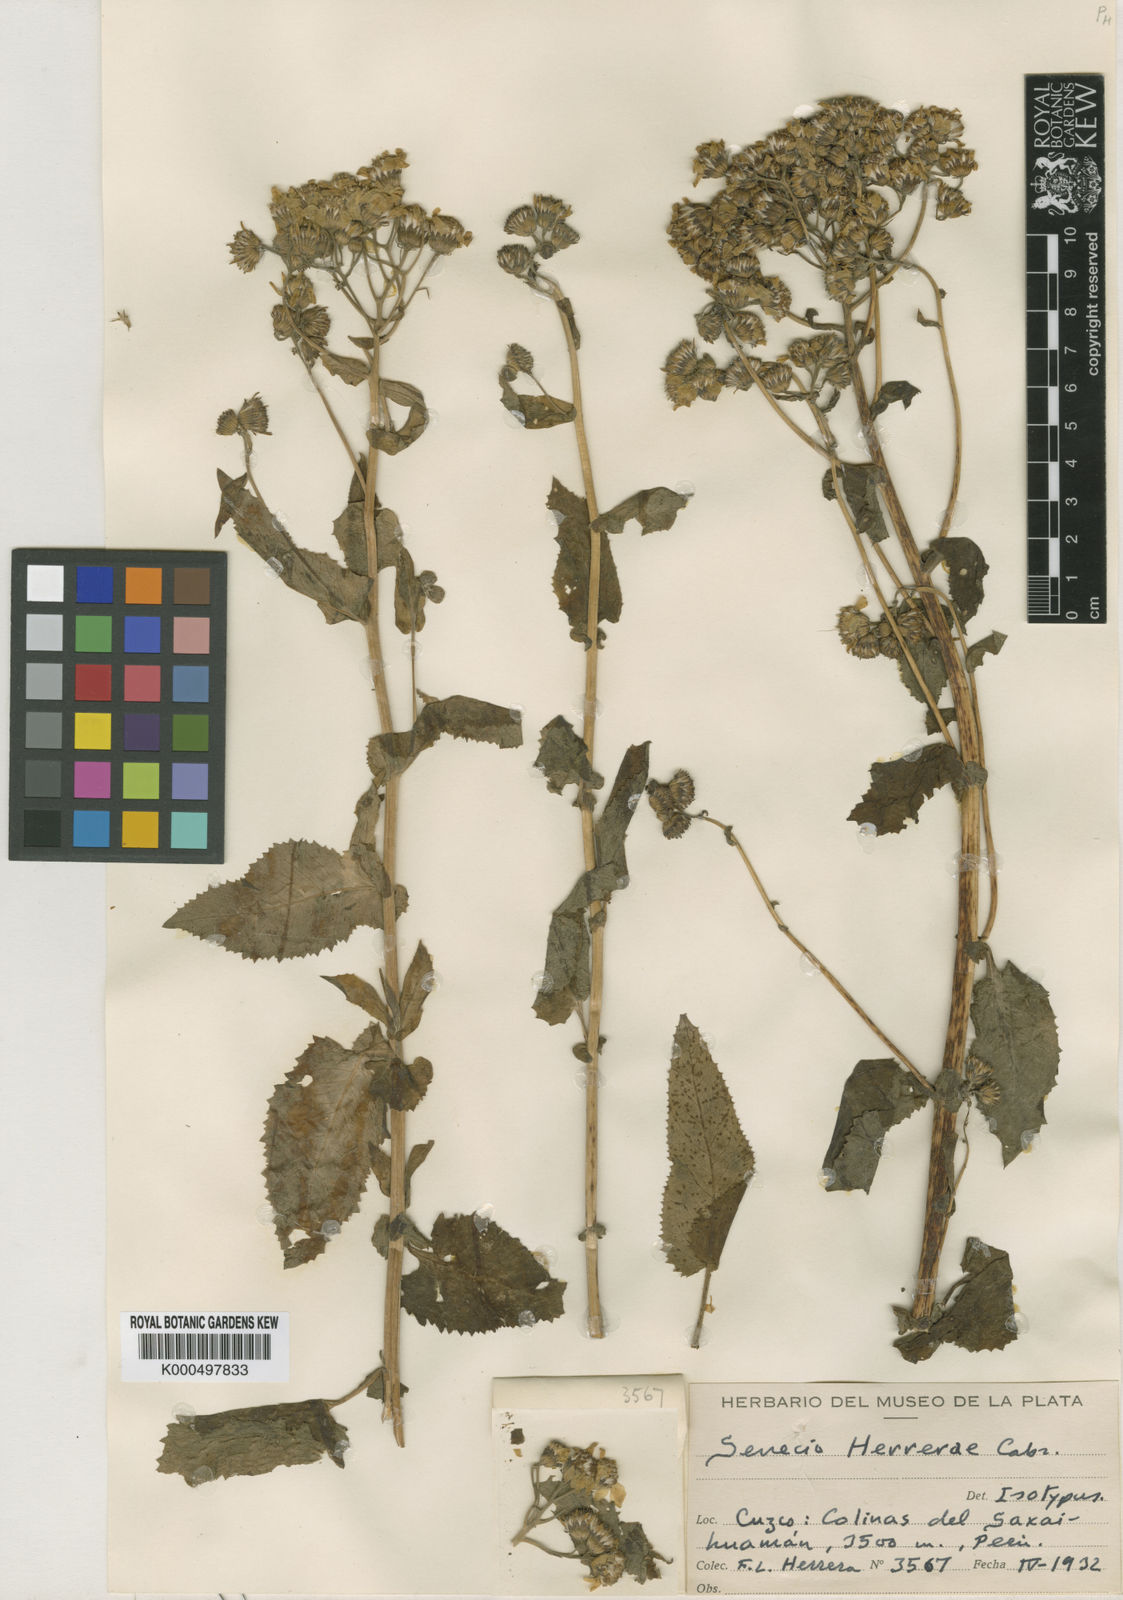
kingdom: Plantae
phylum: Tracheophyta
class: Magnoliopsida
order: Asterales
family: Asteraceae
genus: Senecio
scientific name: Senecio herrerae
